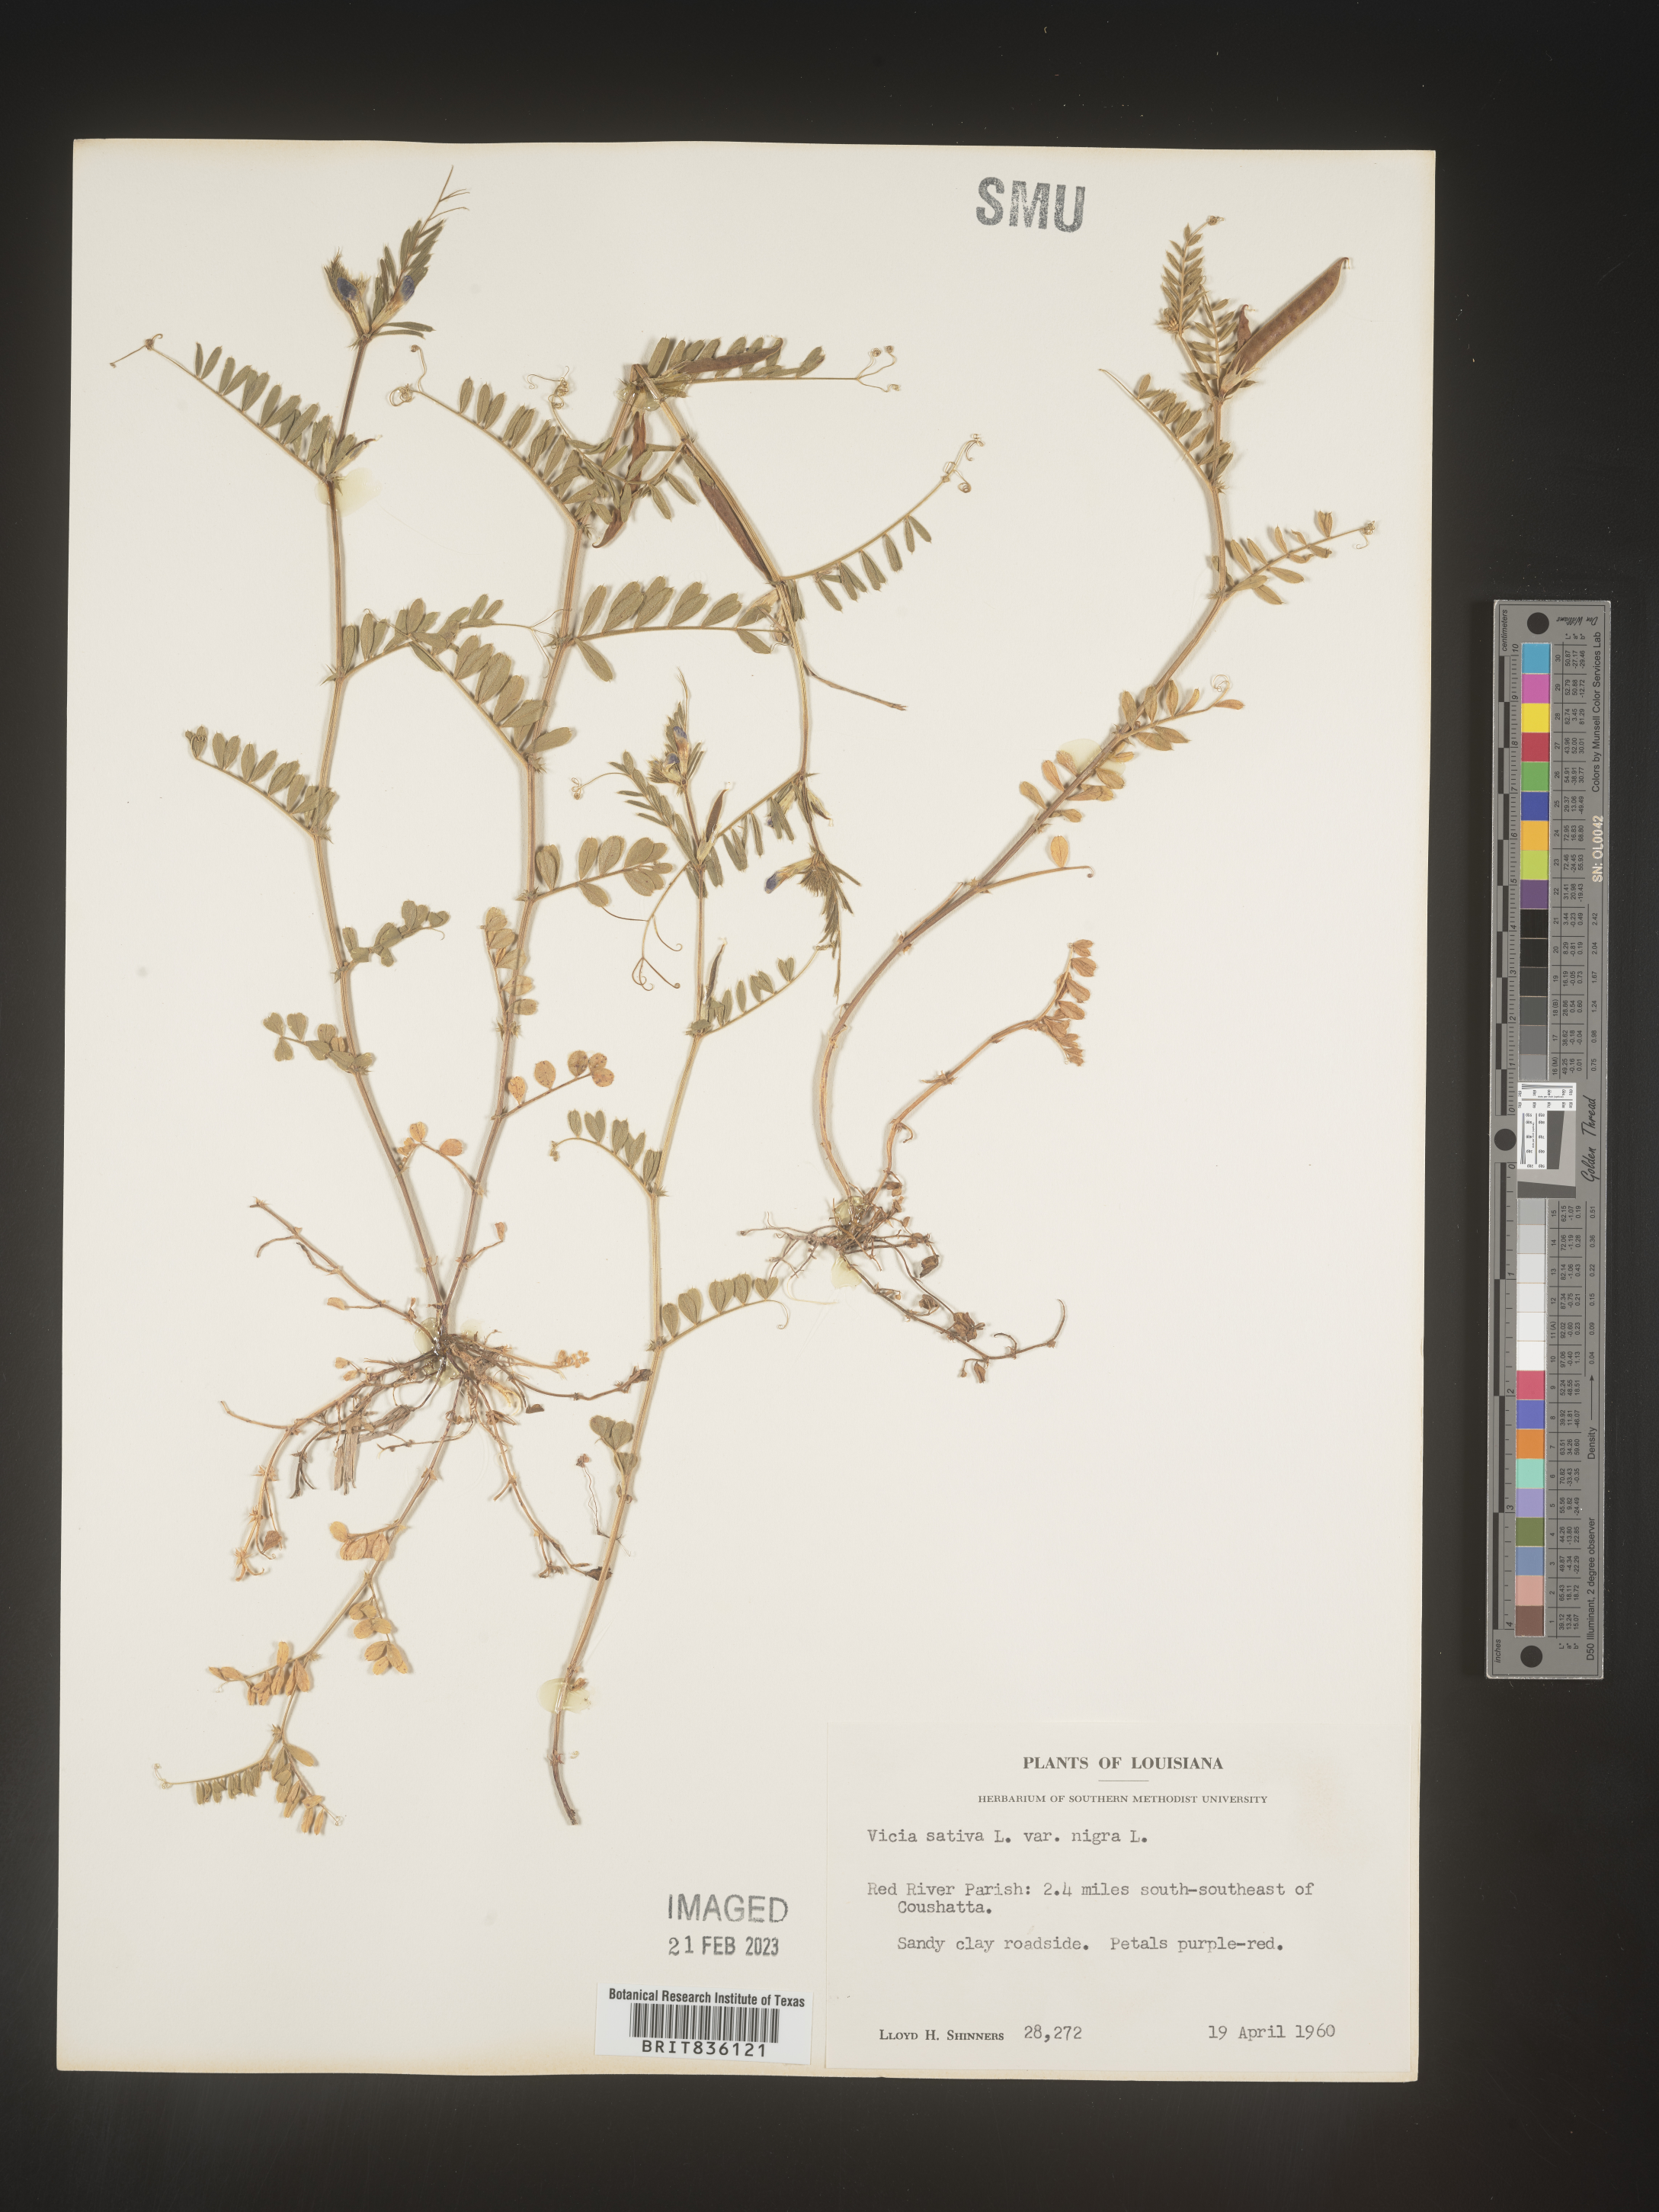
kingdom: Plantae
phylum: Tracheophyta
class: Magnoliopsida
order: Fabales
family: Fabaceae
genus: Vicia
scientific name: Vicia sativa
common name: Garden vetch
